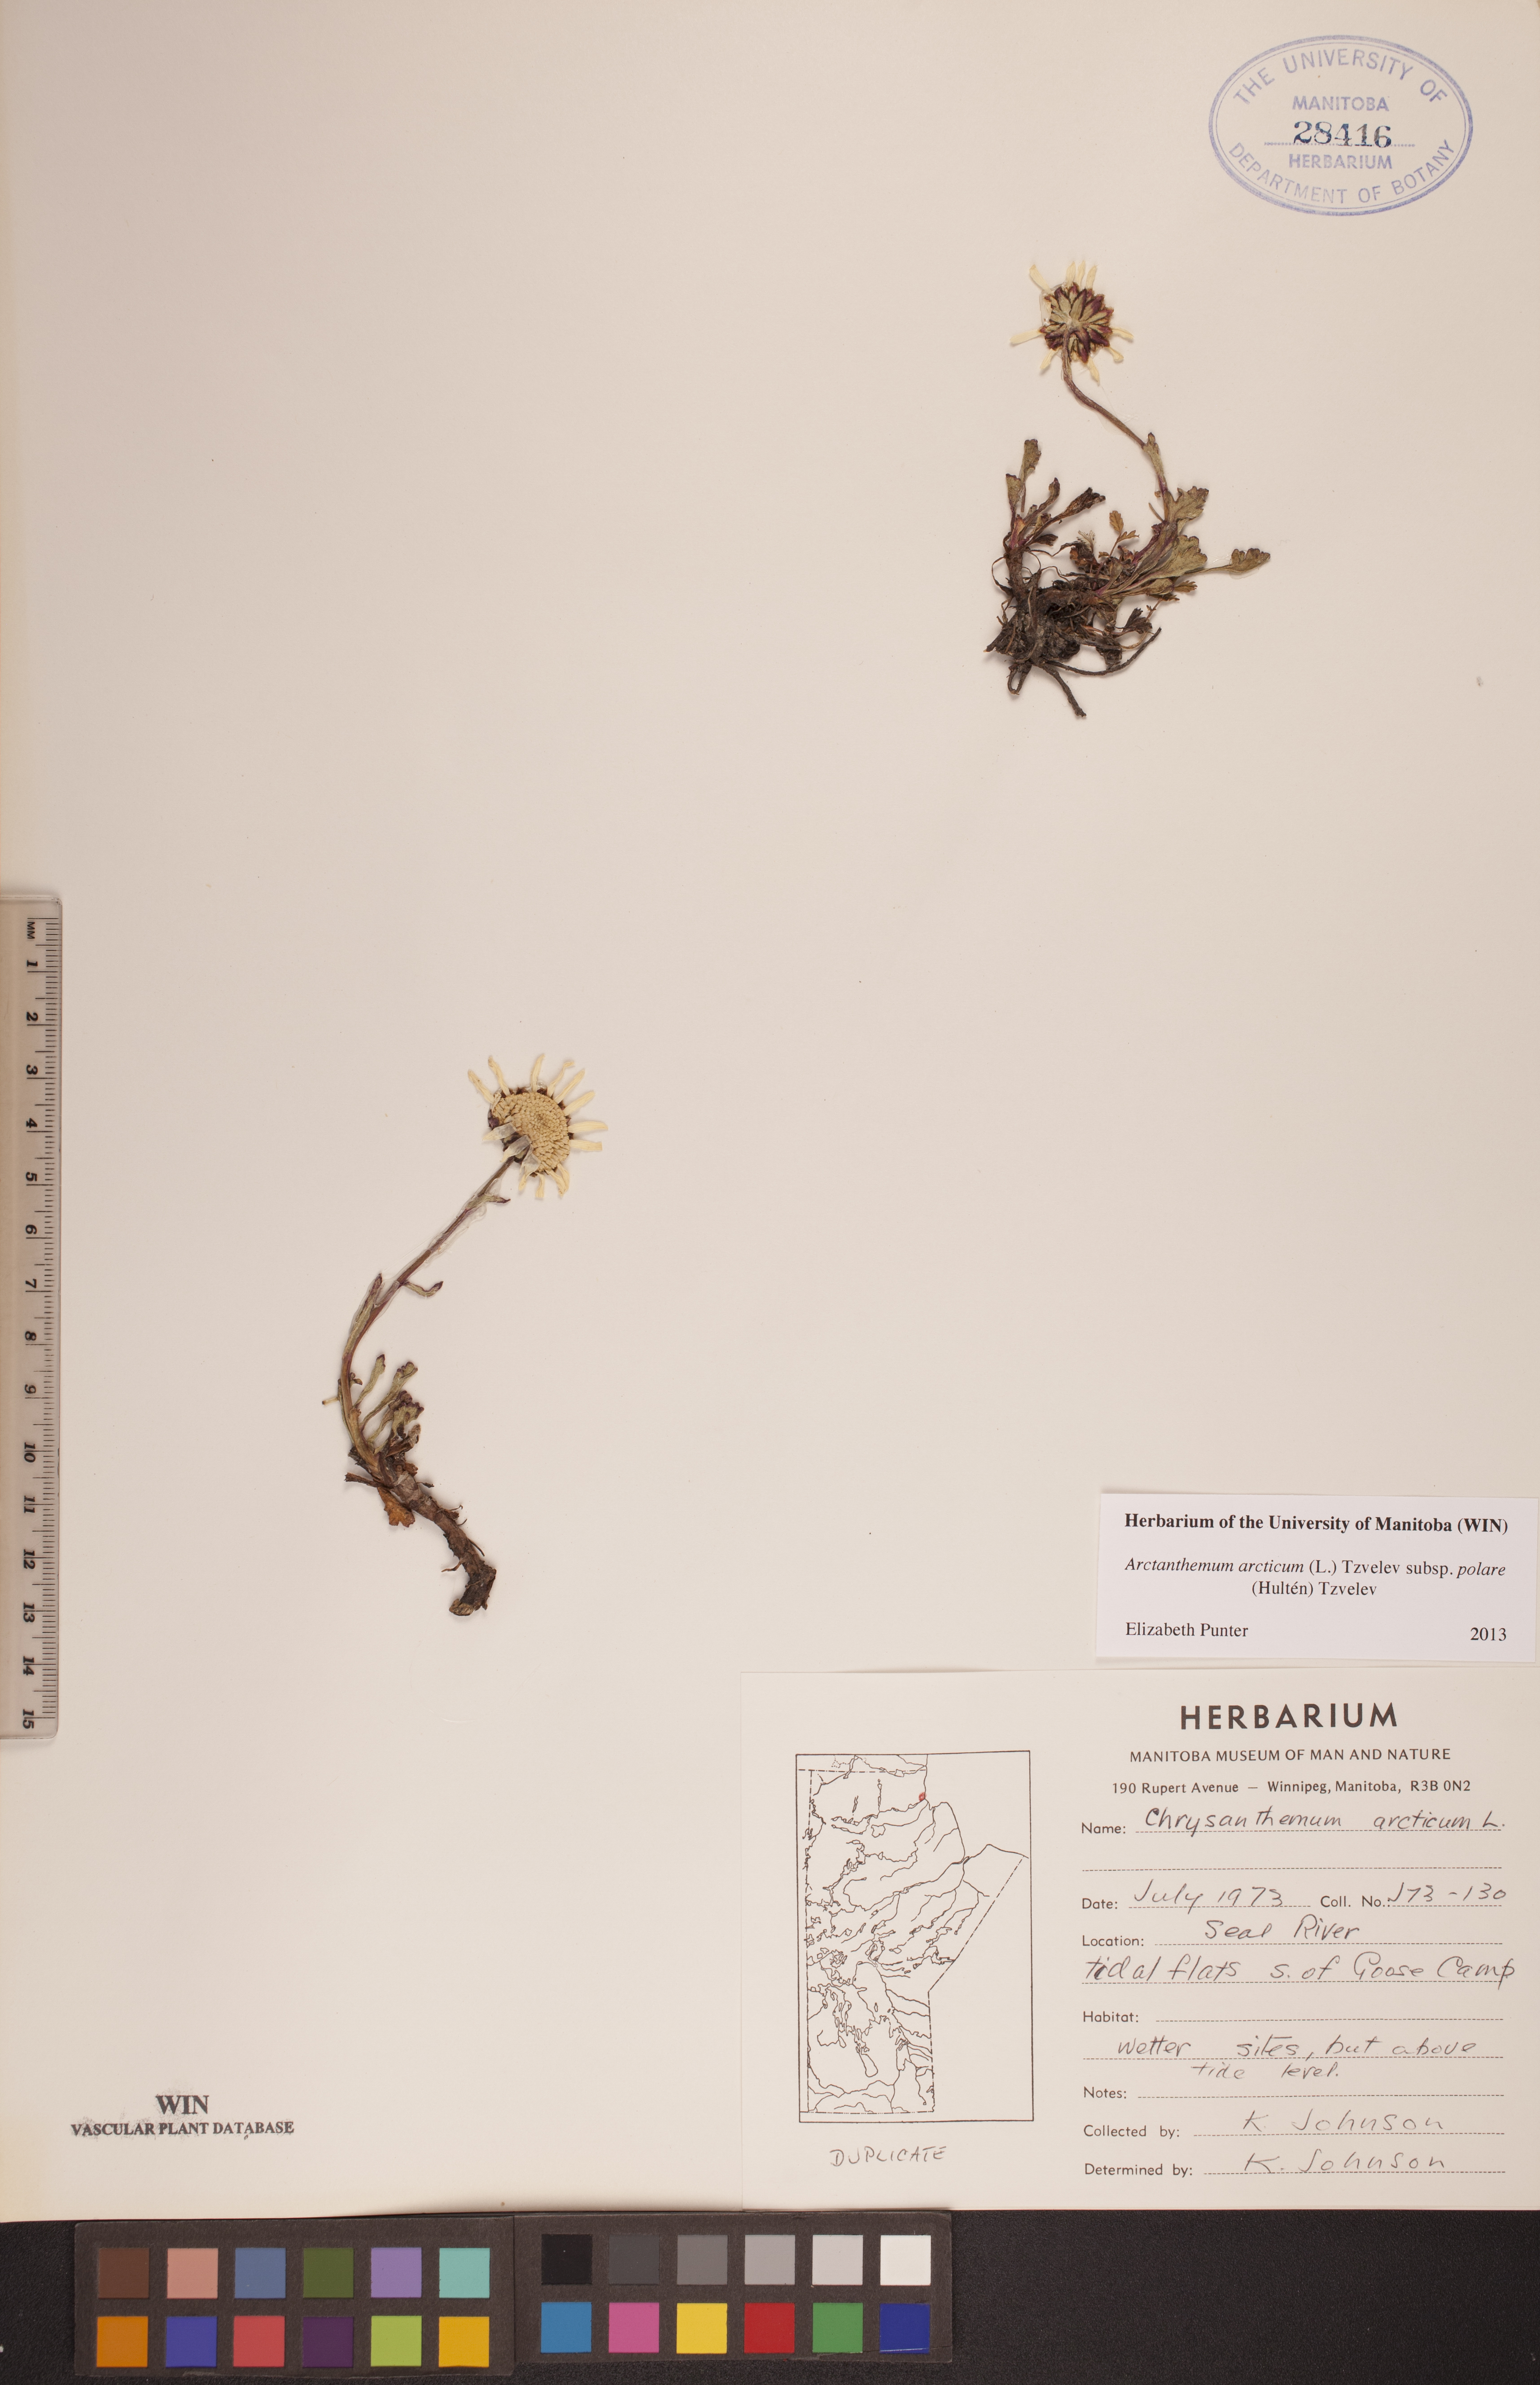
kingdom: Plantae
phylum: Tracheophyta
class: Magnoliopsida
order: Asterales
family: Asteraceae
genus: Arctanthemum
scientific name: Arctanthemum arcticum
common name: Arctic daisy
